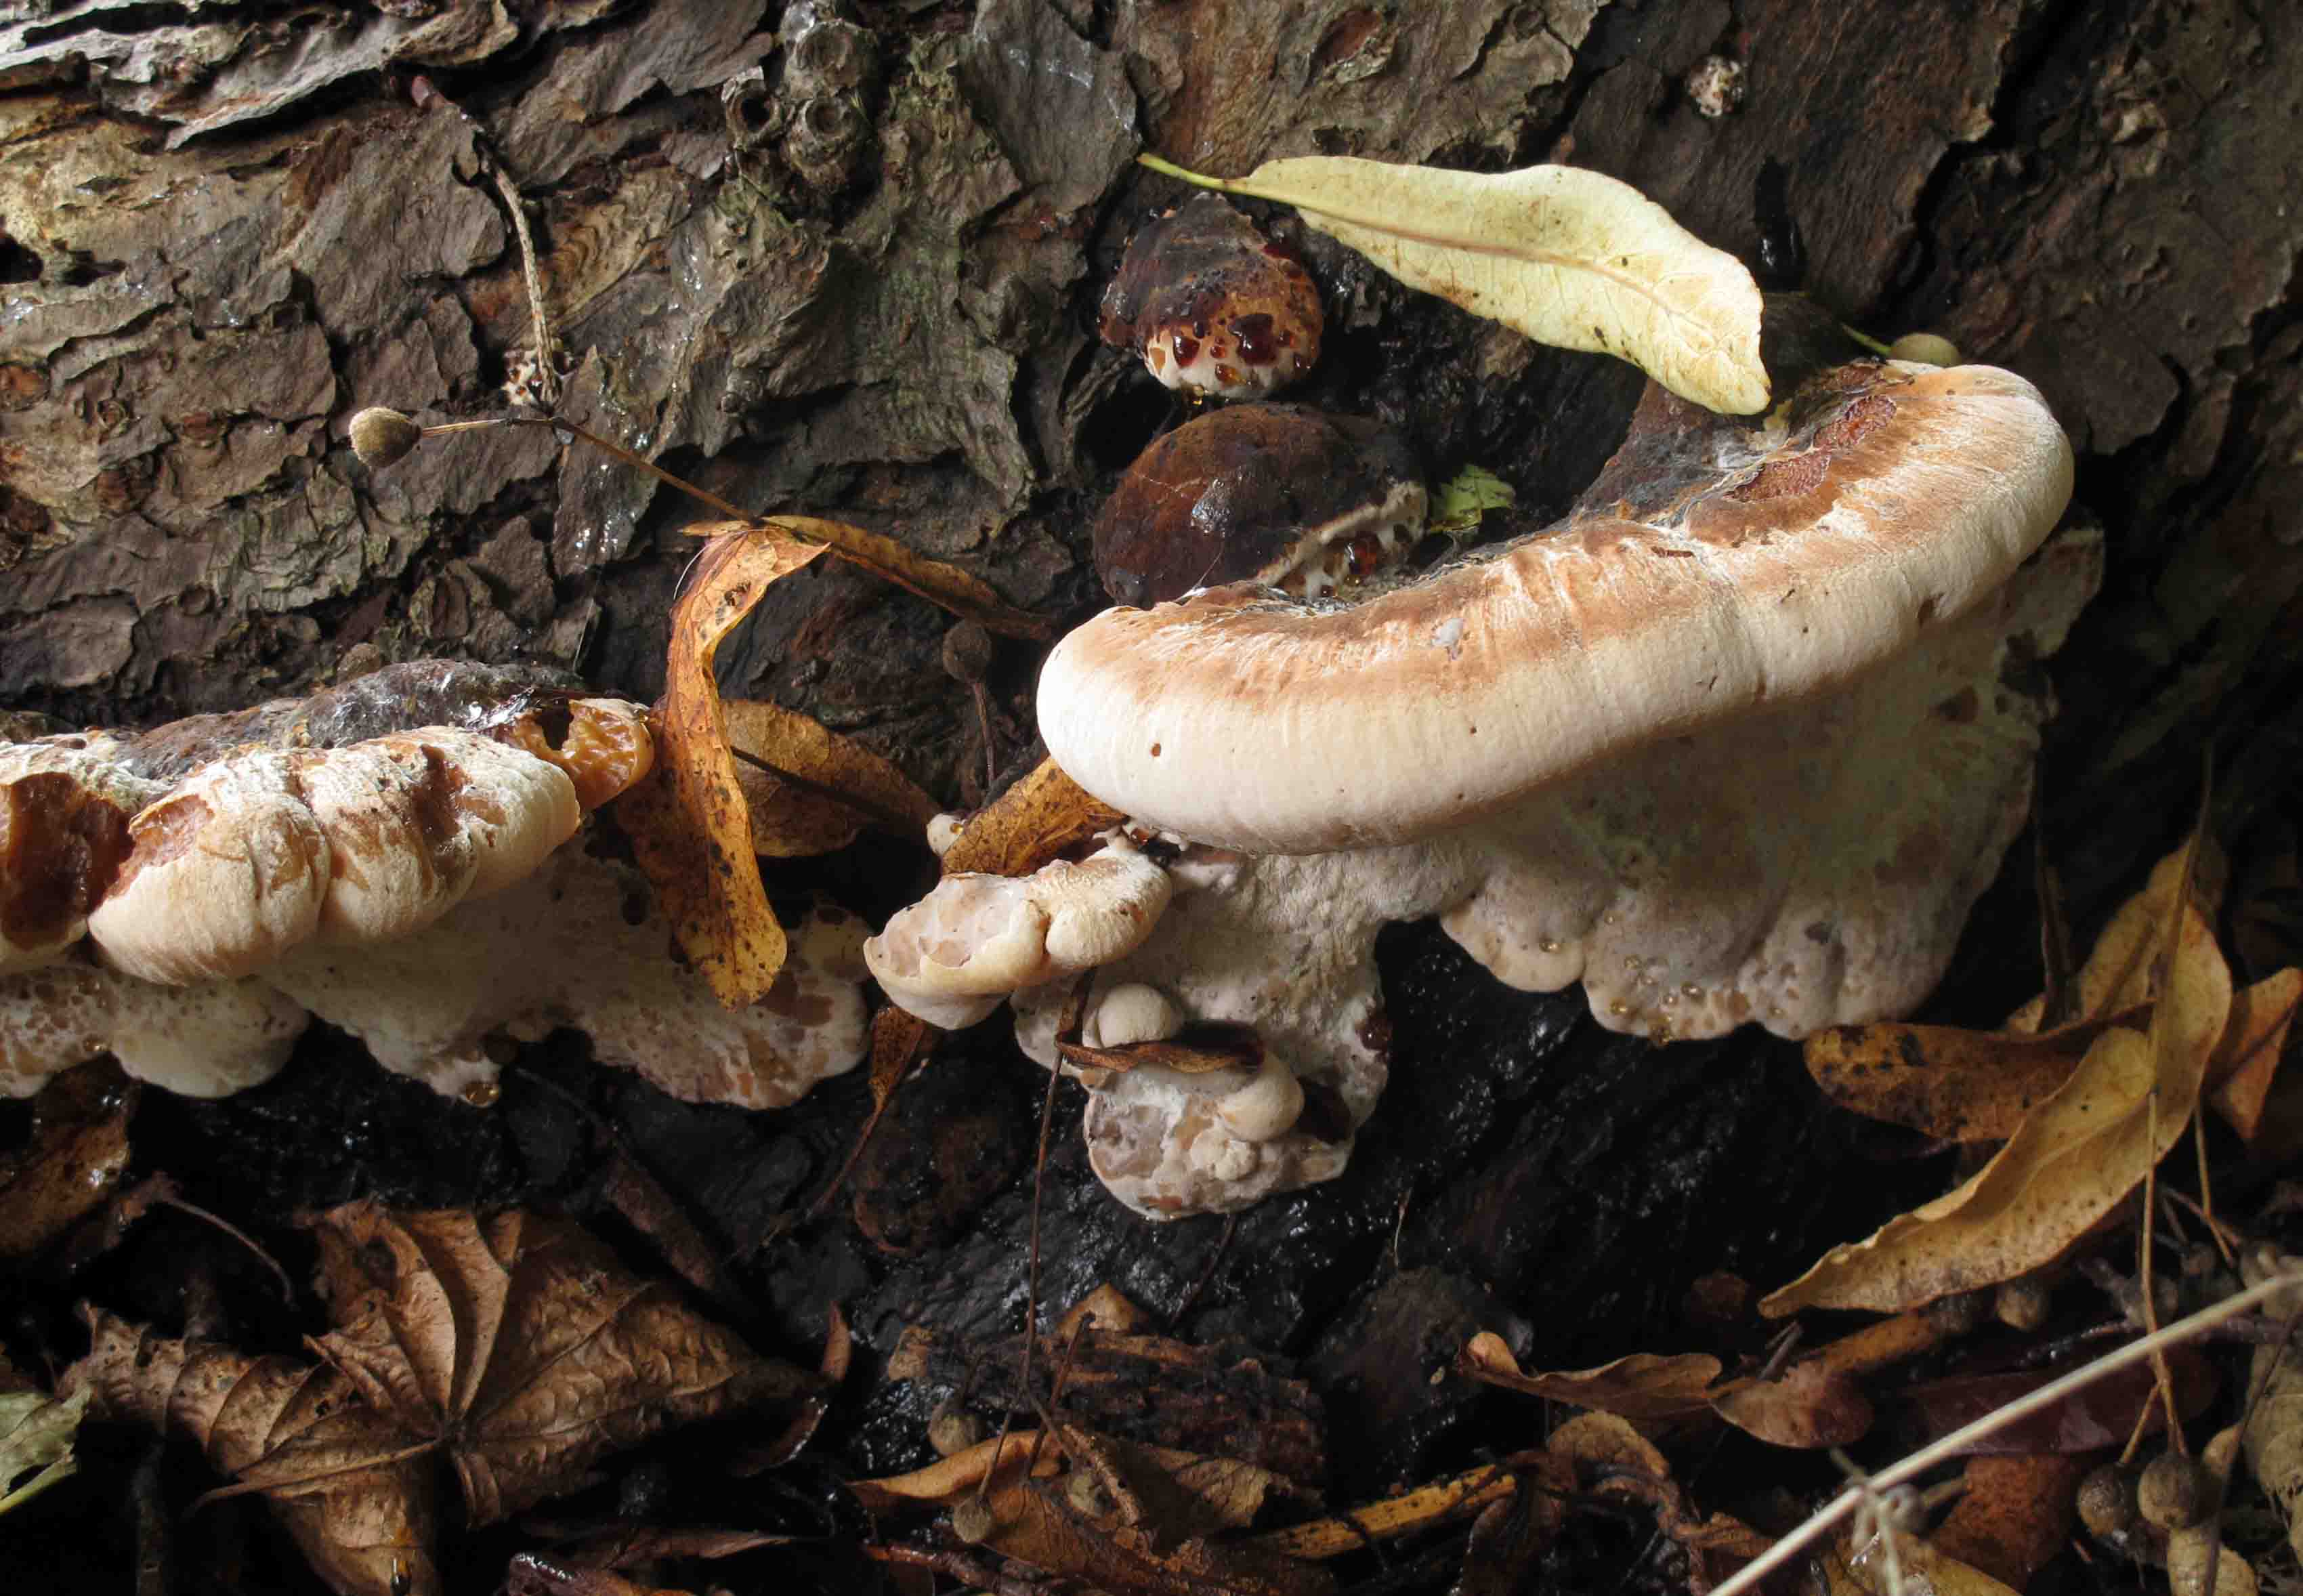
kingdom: Fungi
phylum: Basidiomycota
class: Agaricomycetes
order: Polyporales
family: Ischnodermataceae
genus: Ischnoderma
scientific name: Ischnoderma resinosum
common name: løv-tjæreporesvamp
